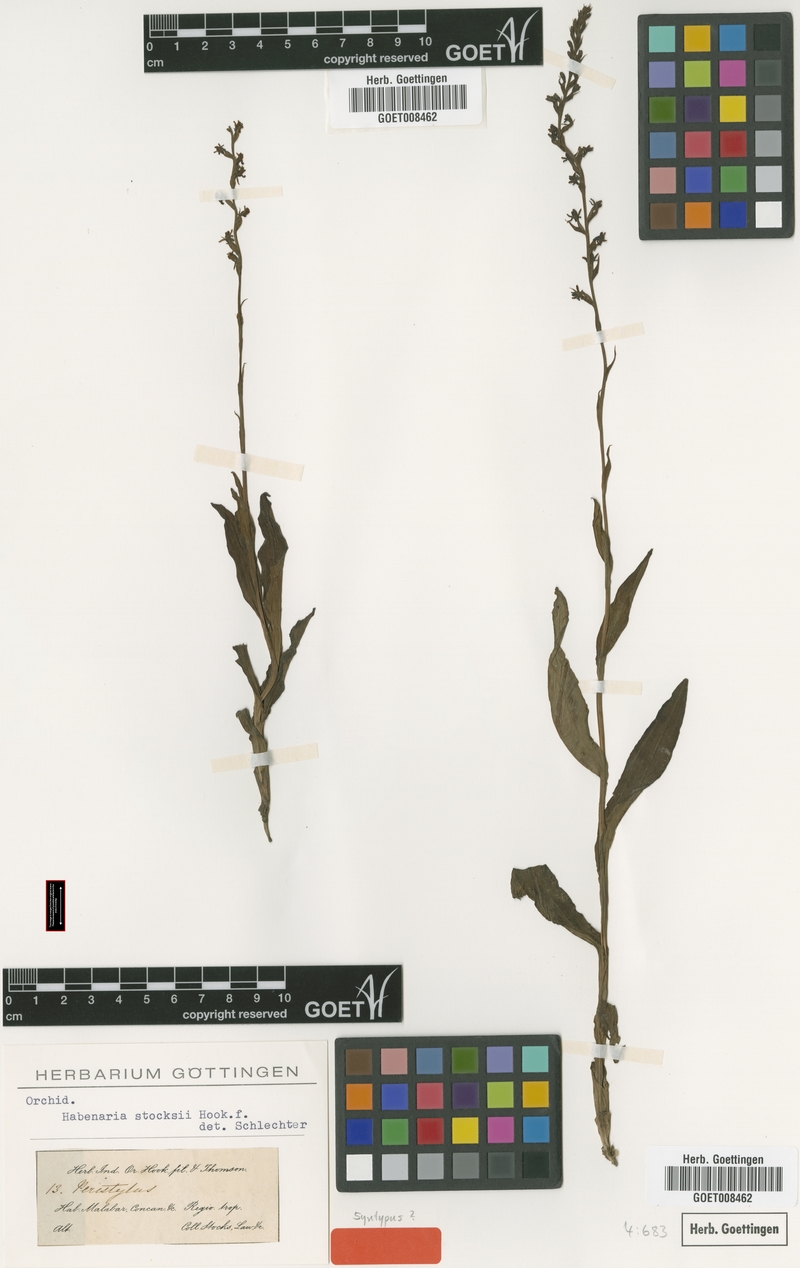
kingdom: Plantae
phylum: Tracheophyta
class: Liliopsida
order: Asparagales
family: Orchidaceae
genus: Peristylus
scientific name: Peristylus stocksii
